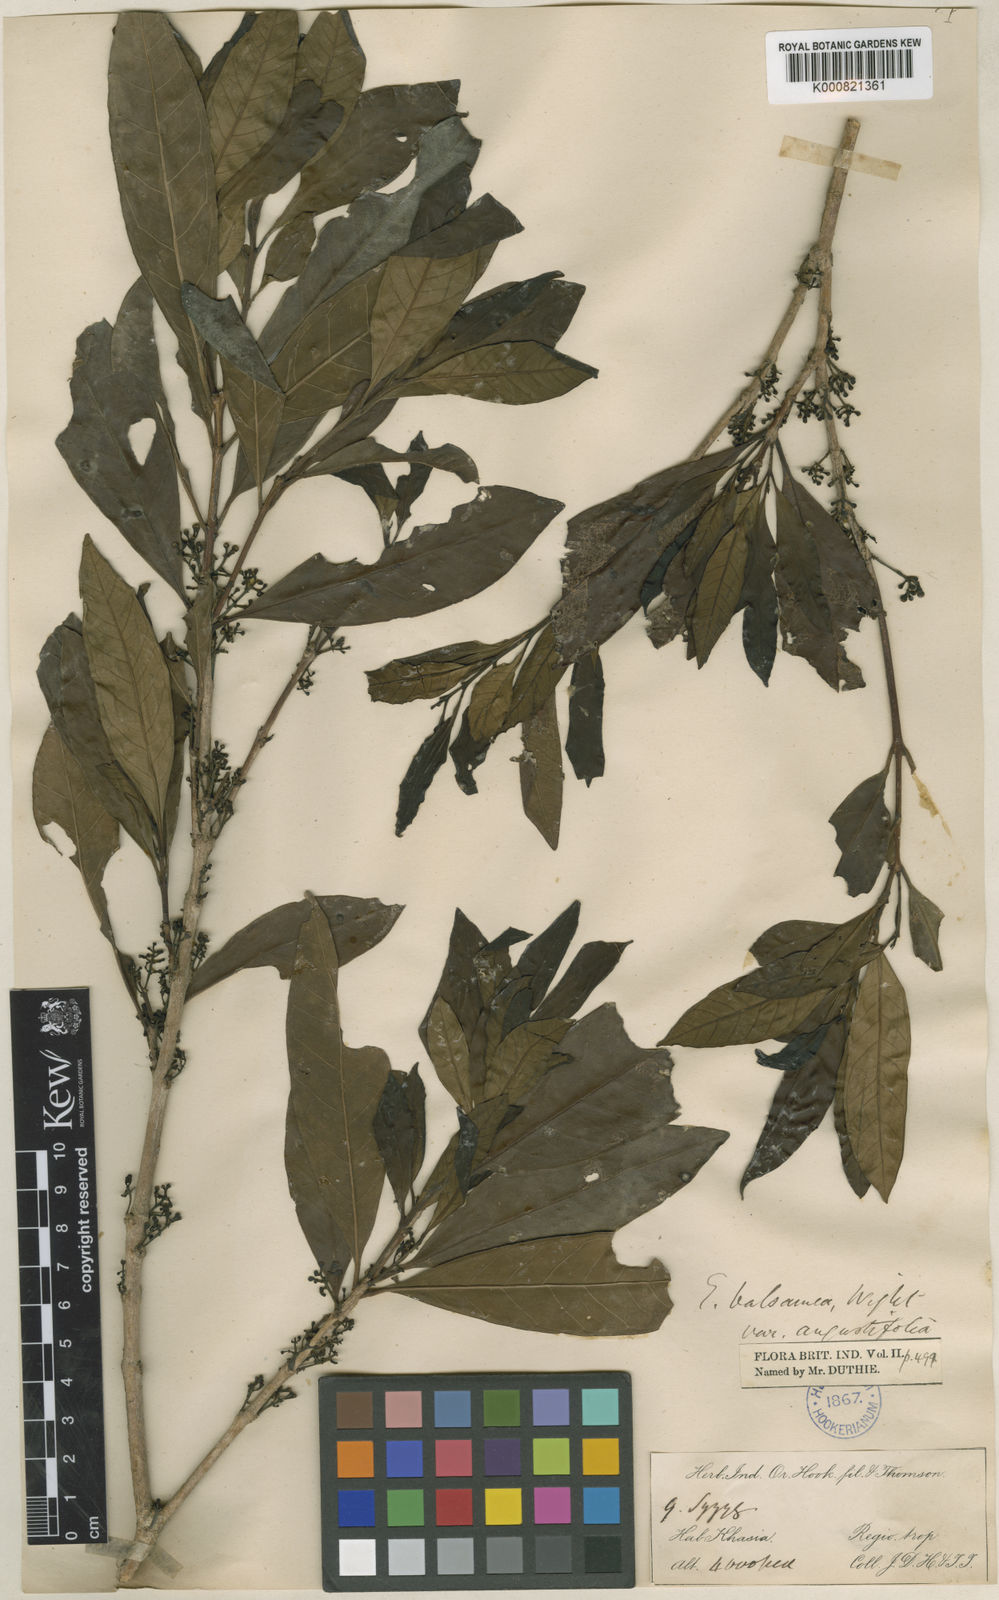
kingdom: Plantae
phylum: Tracheophyta
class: Magnoliopsida
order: Myrtales
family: Myrtaceae
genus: Syzygium
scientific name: Syzygium balsameum
